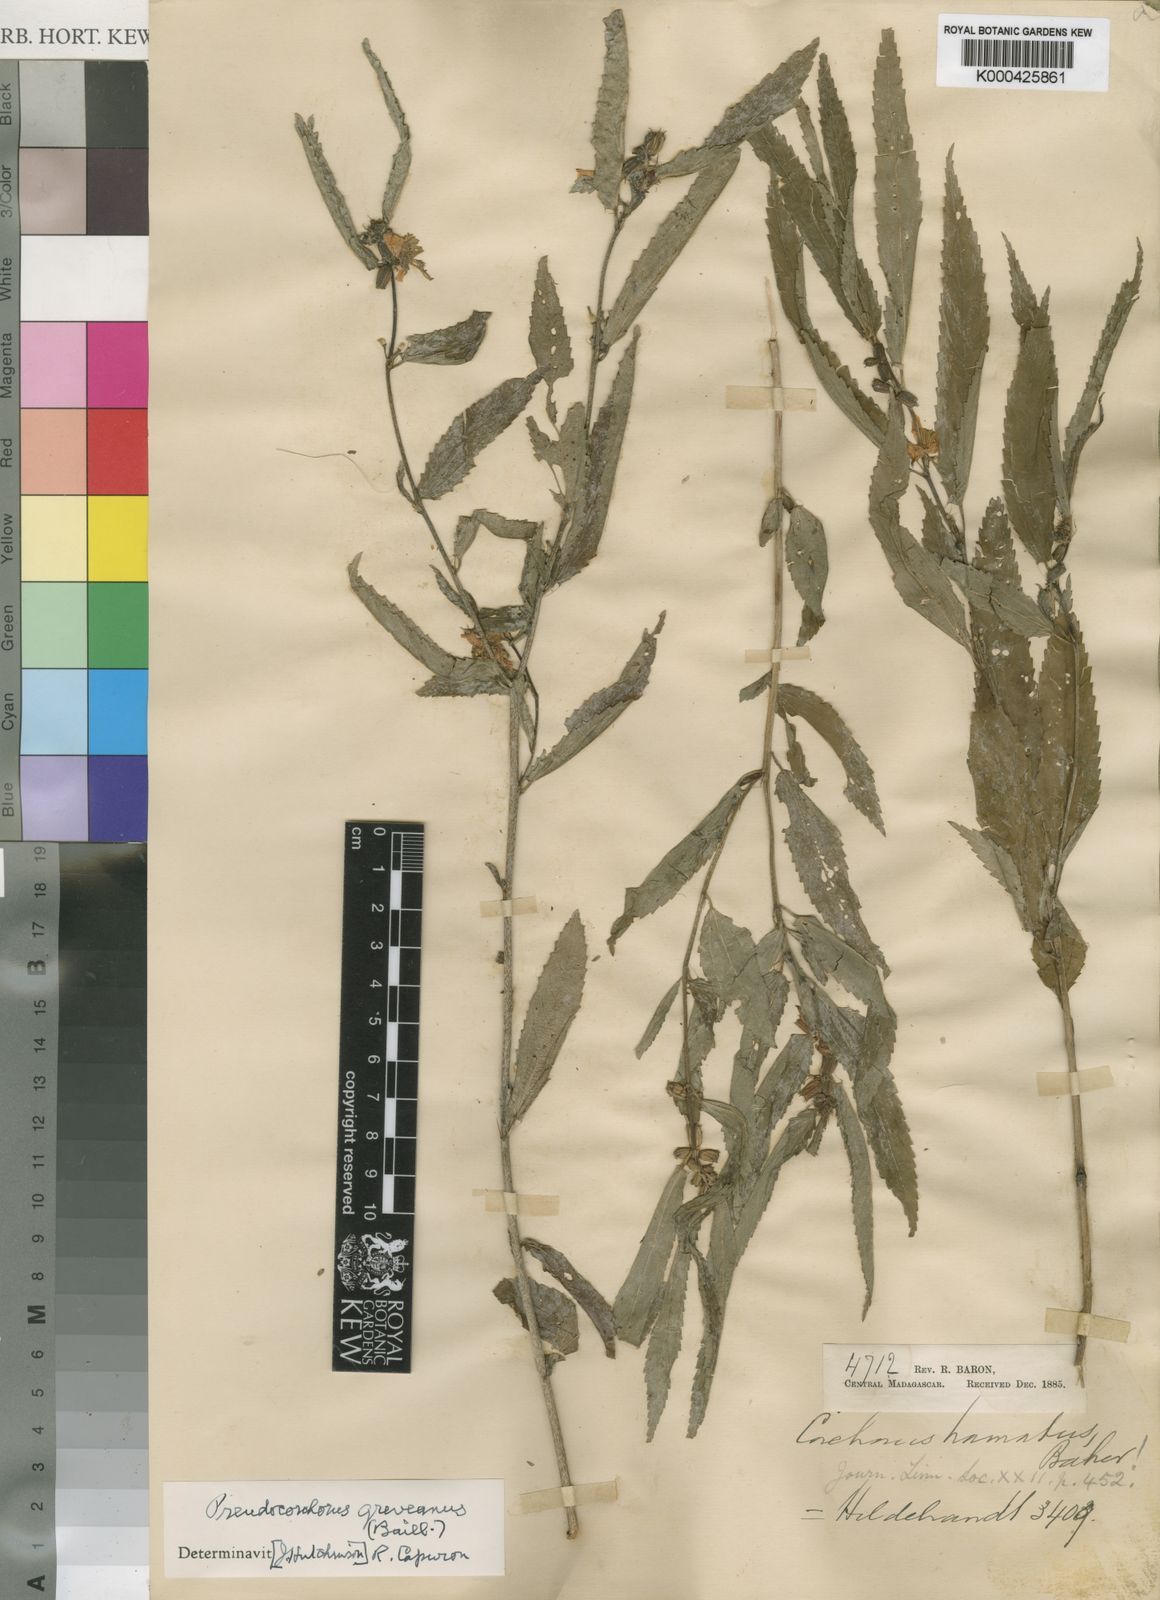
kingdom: Plantae
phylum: Tracheophyta
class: Magnoliopsida
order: Malvales
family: Malvaceae
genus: Pseudocorchorus
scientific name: Pseudocorchorus greveanus
